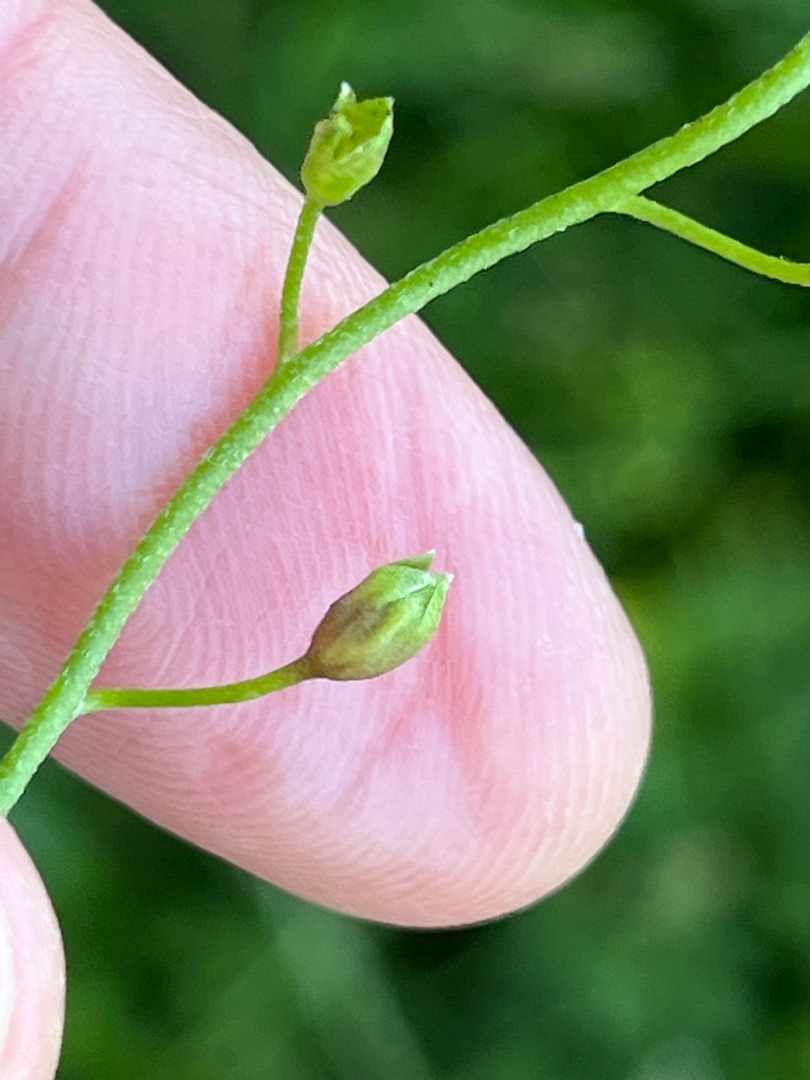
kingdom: Animalia
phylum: Arthropoda
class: Insecta
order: Diptera
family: Cecidomyiidae
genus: Dasineura
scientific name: Dasineura myosotidis
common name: Forglemmigejgalmyg
